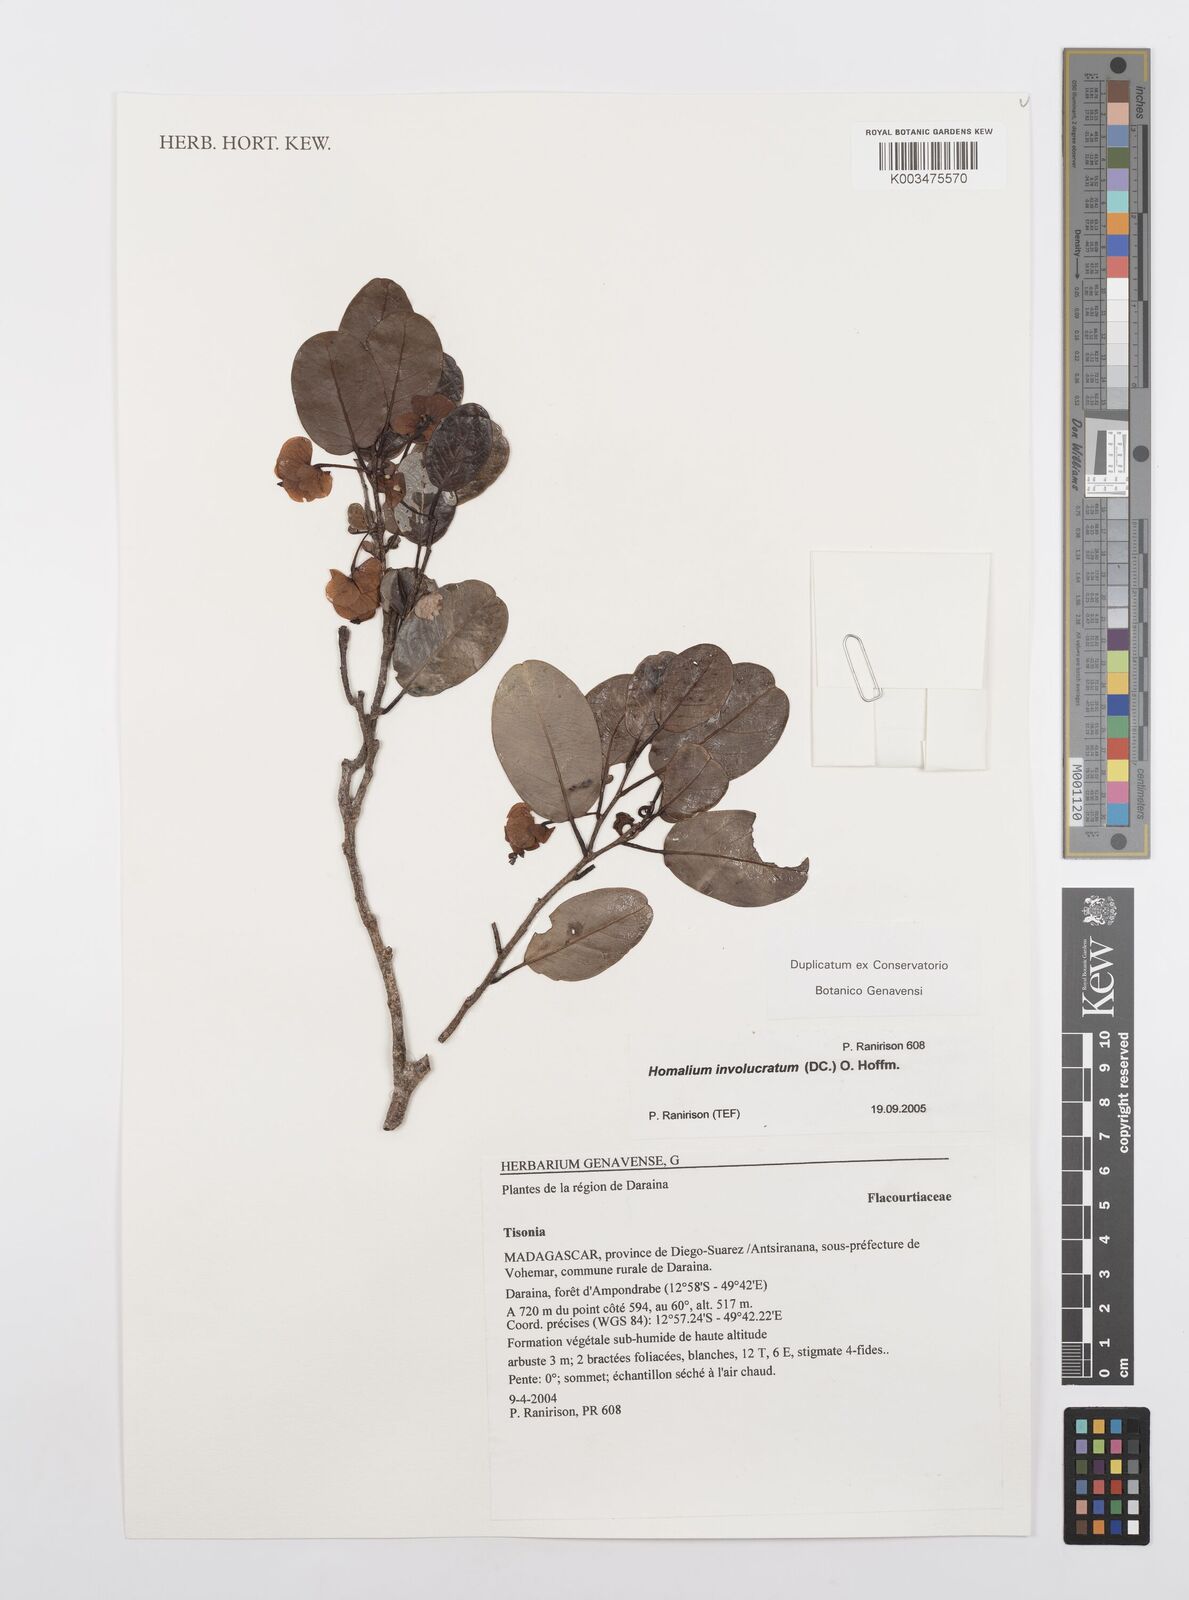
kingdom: Plantae
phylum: Tracheophyta
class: Magnoliopsida
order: Malpighiales
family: Salicaceae
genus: Homalium
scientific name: Homalium involucratum
